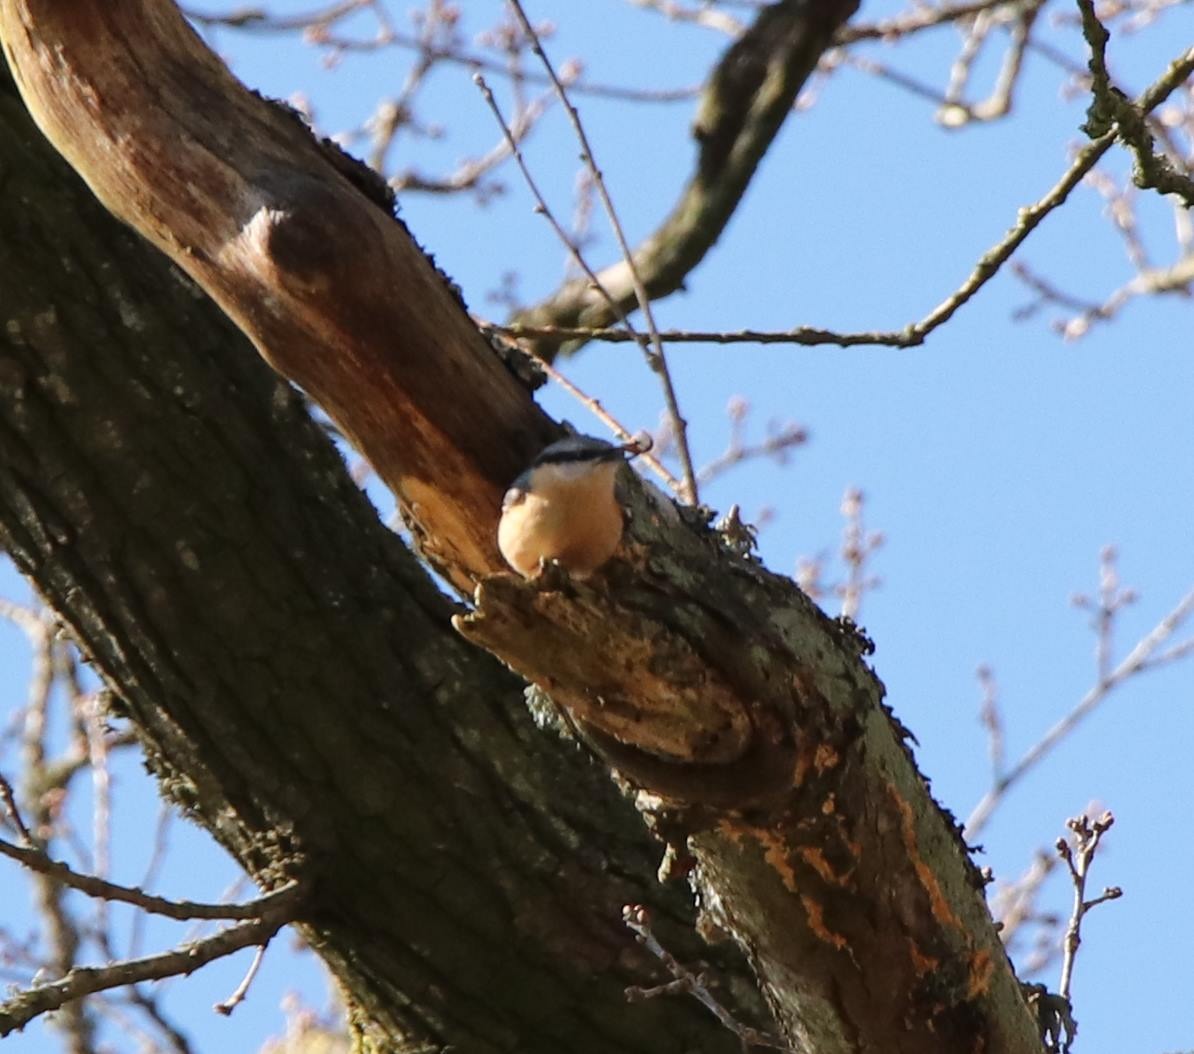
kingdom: Animalia
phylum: Chordata
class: Aves
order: Passeriformes
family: Sittidae
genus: Sitta
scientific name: Sitta europaea
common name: Mørkbuget spætmejse
